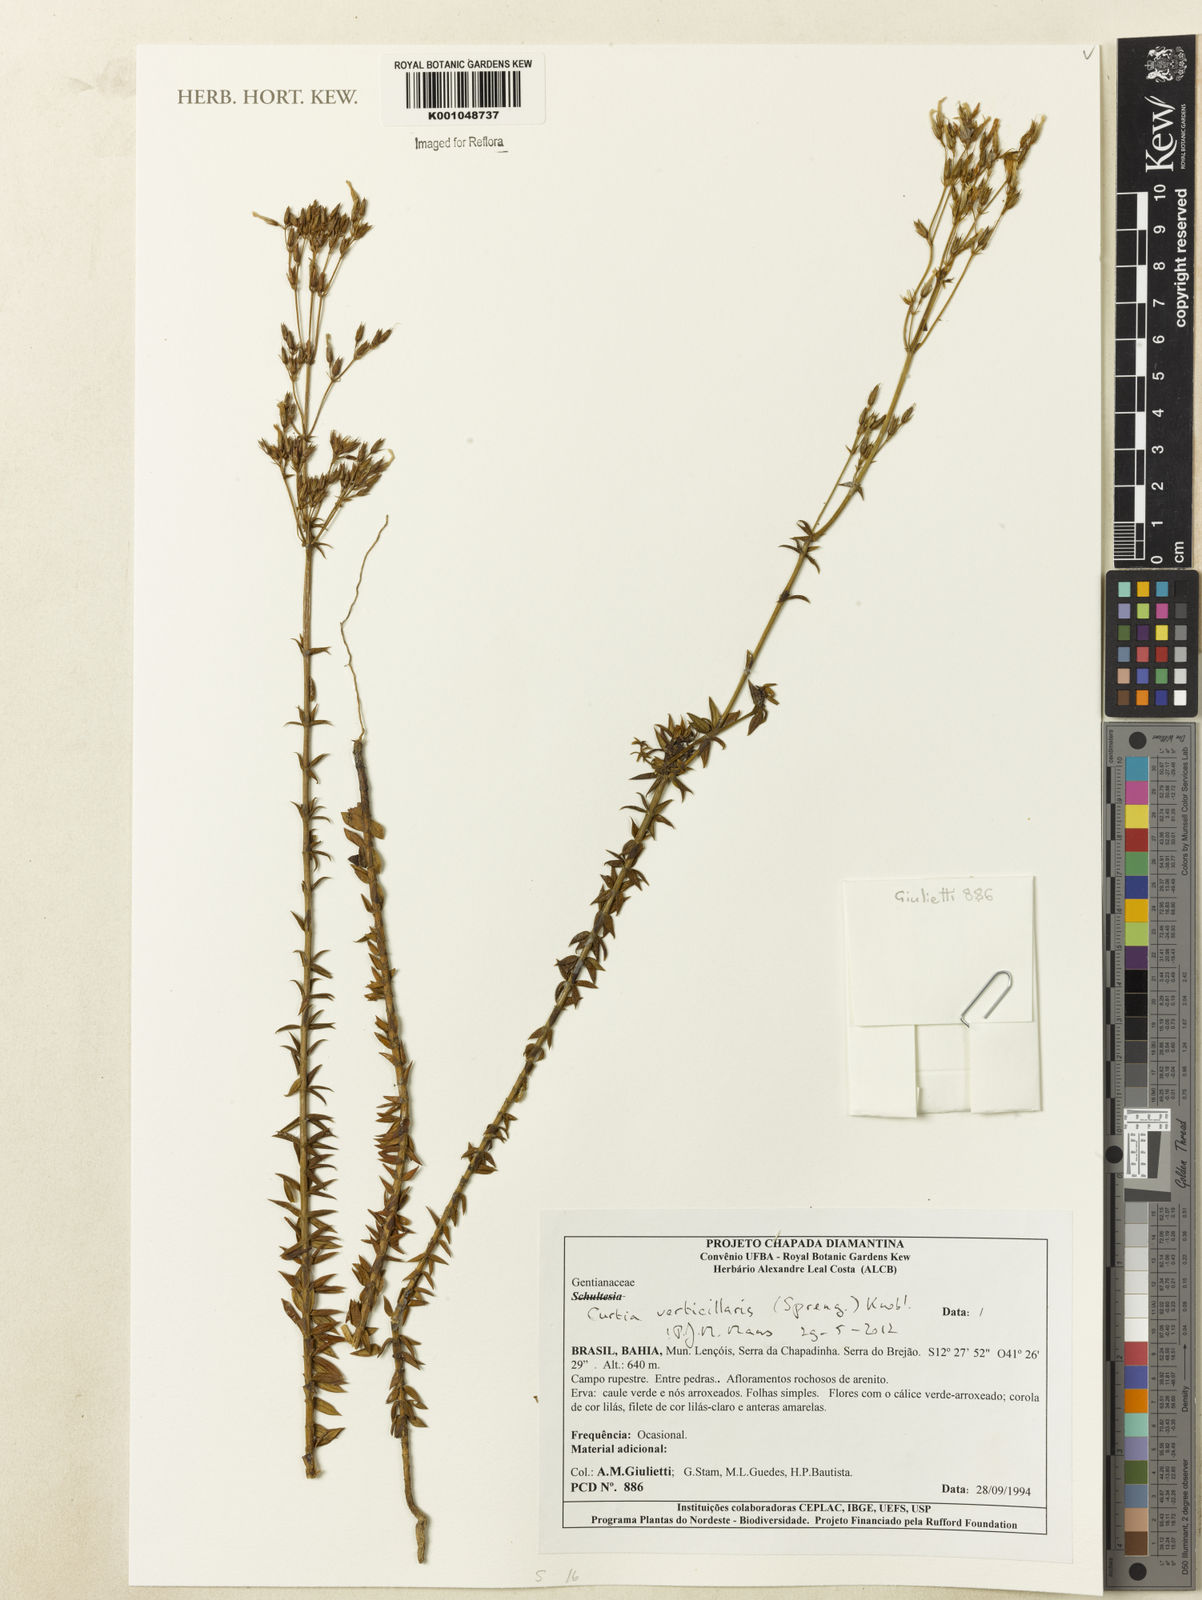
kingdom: Plantae
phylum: Tracheophyta
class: Magnoliopsida
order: Gentianales
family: Gentianaceae
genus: Curtia
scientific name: Curtia verticillaris
